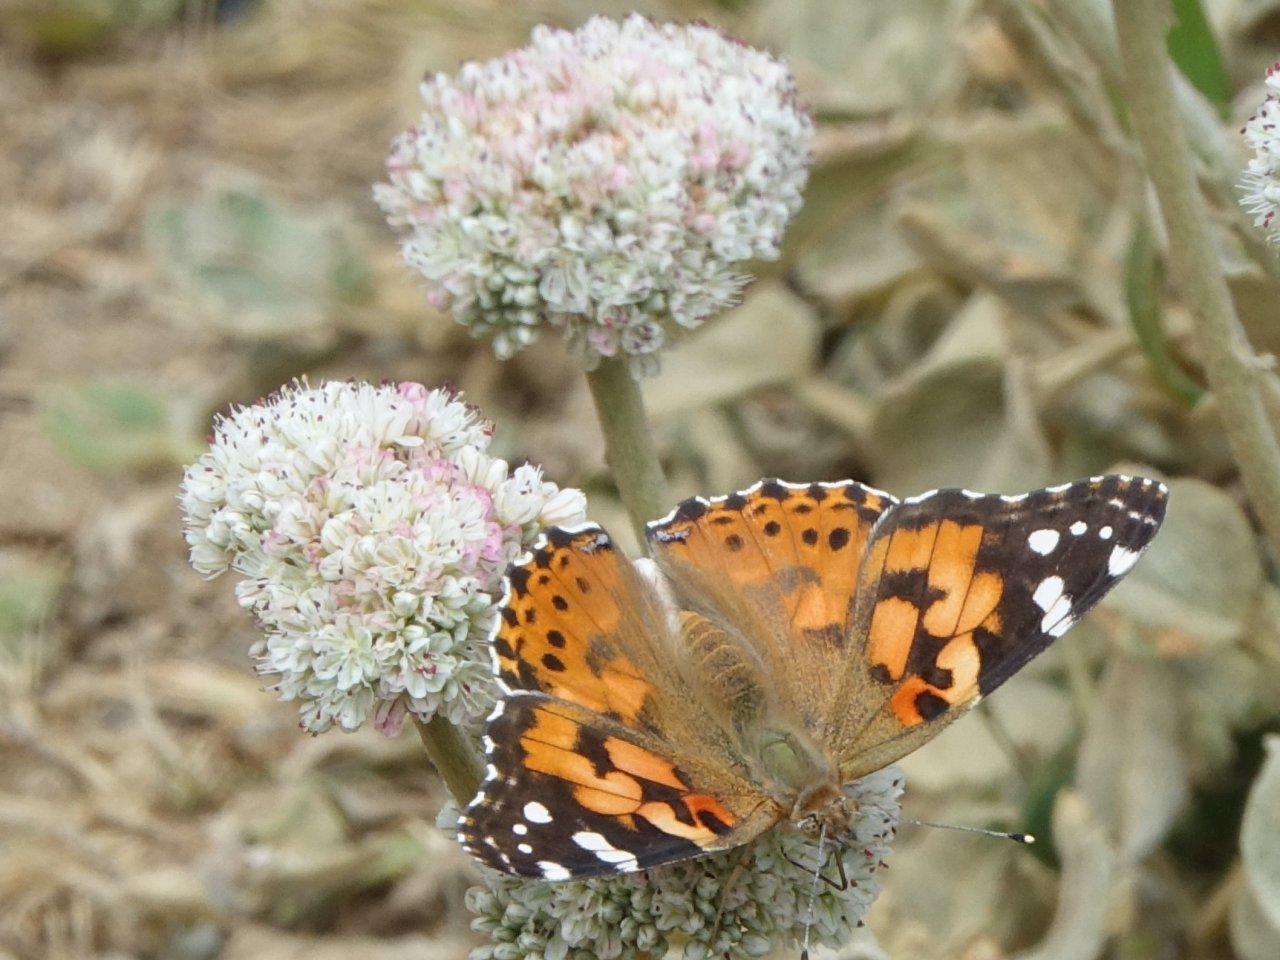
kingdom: Animalia
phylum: Arthropoda
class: Insecta
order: Lepidoptera
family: Nymphalidae
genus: Vanessa
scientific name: Vanessa cardui
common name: Painted Lady
